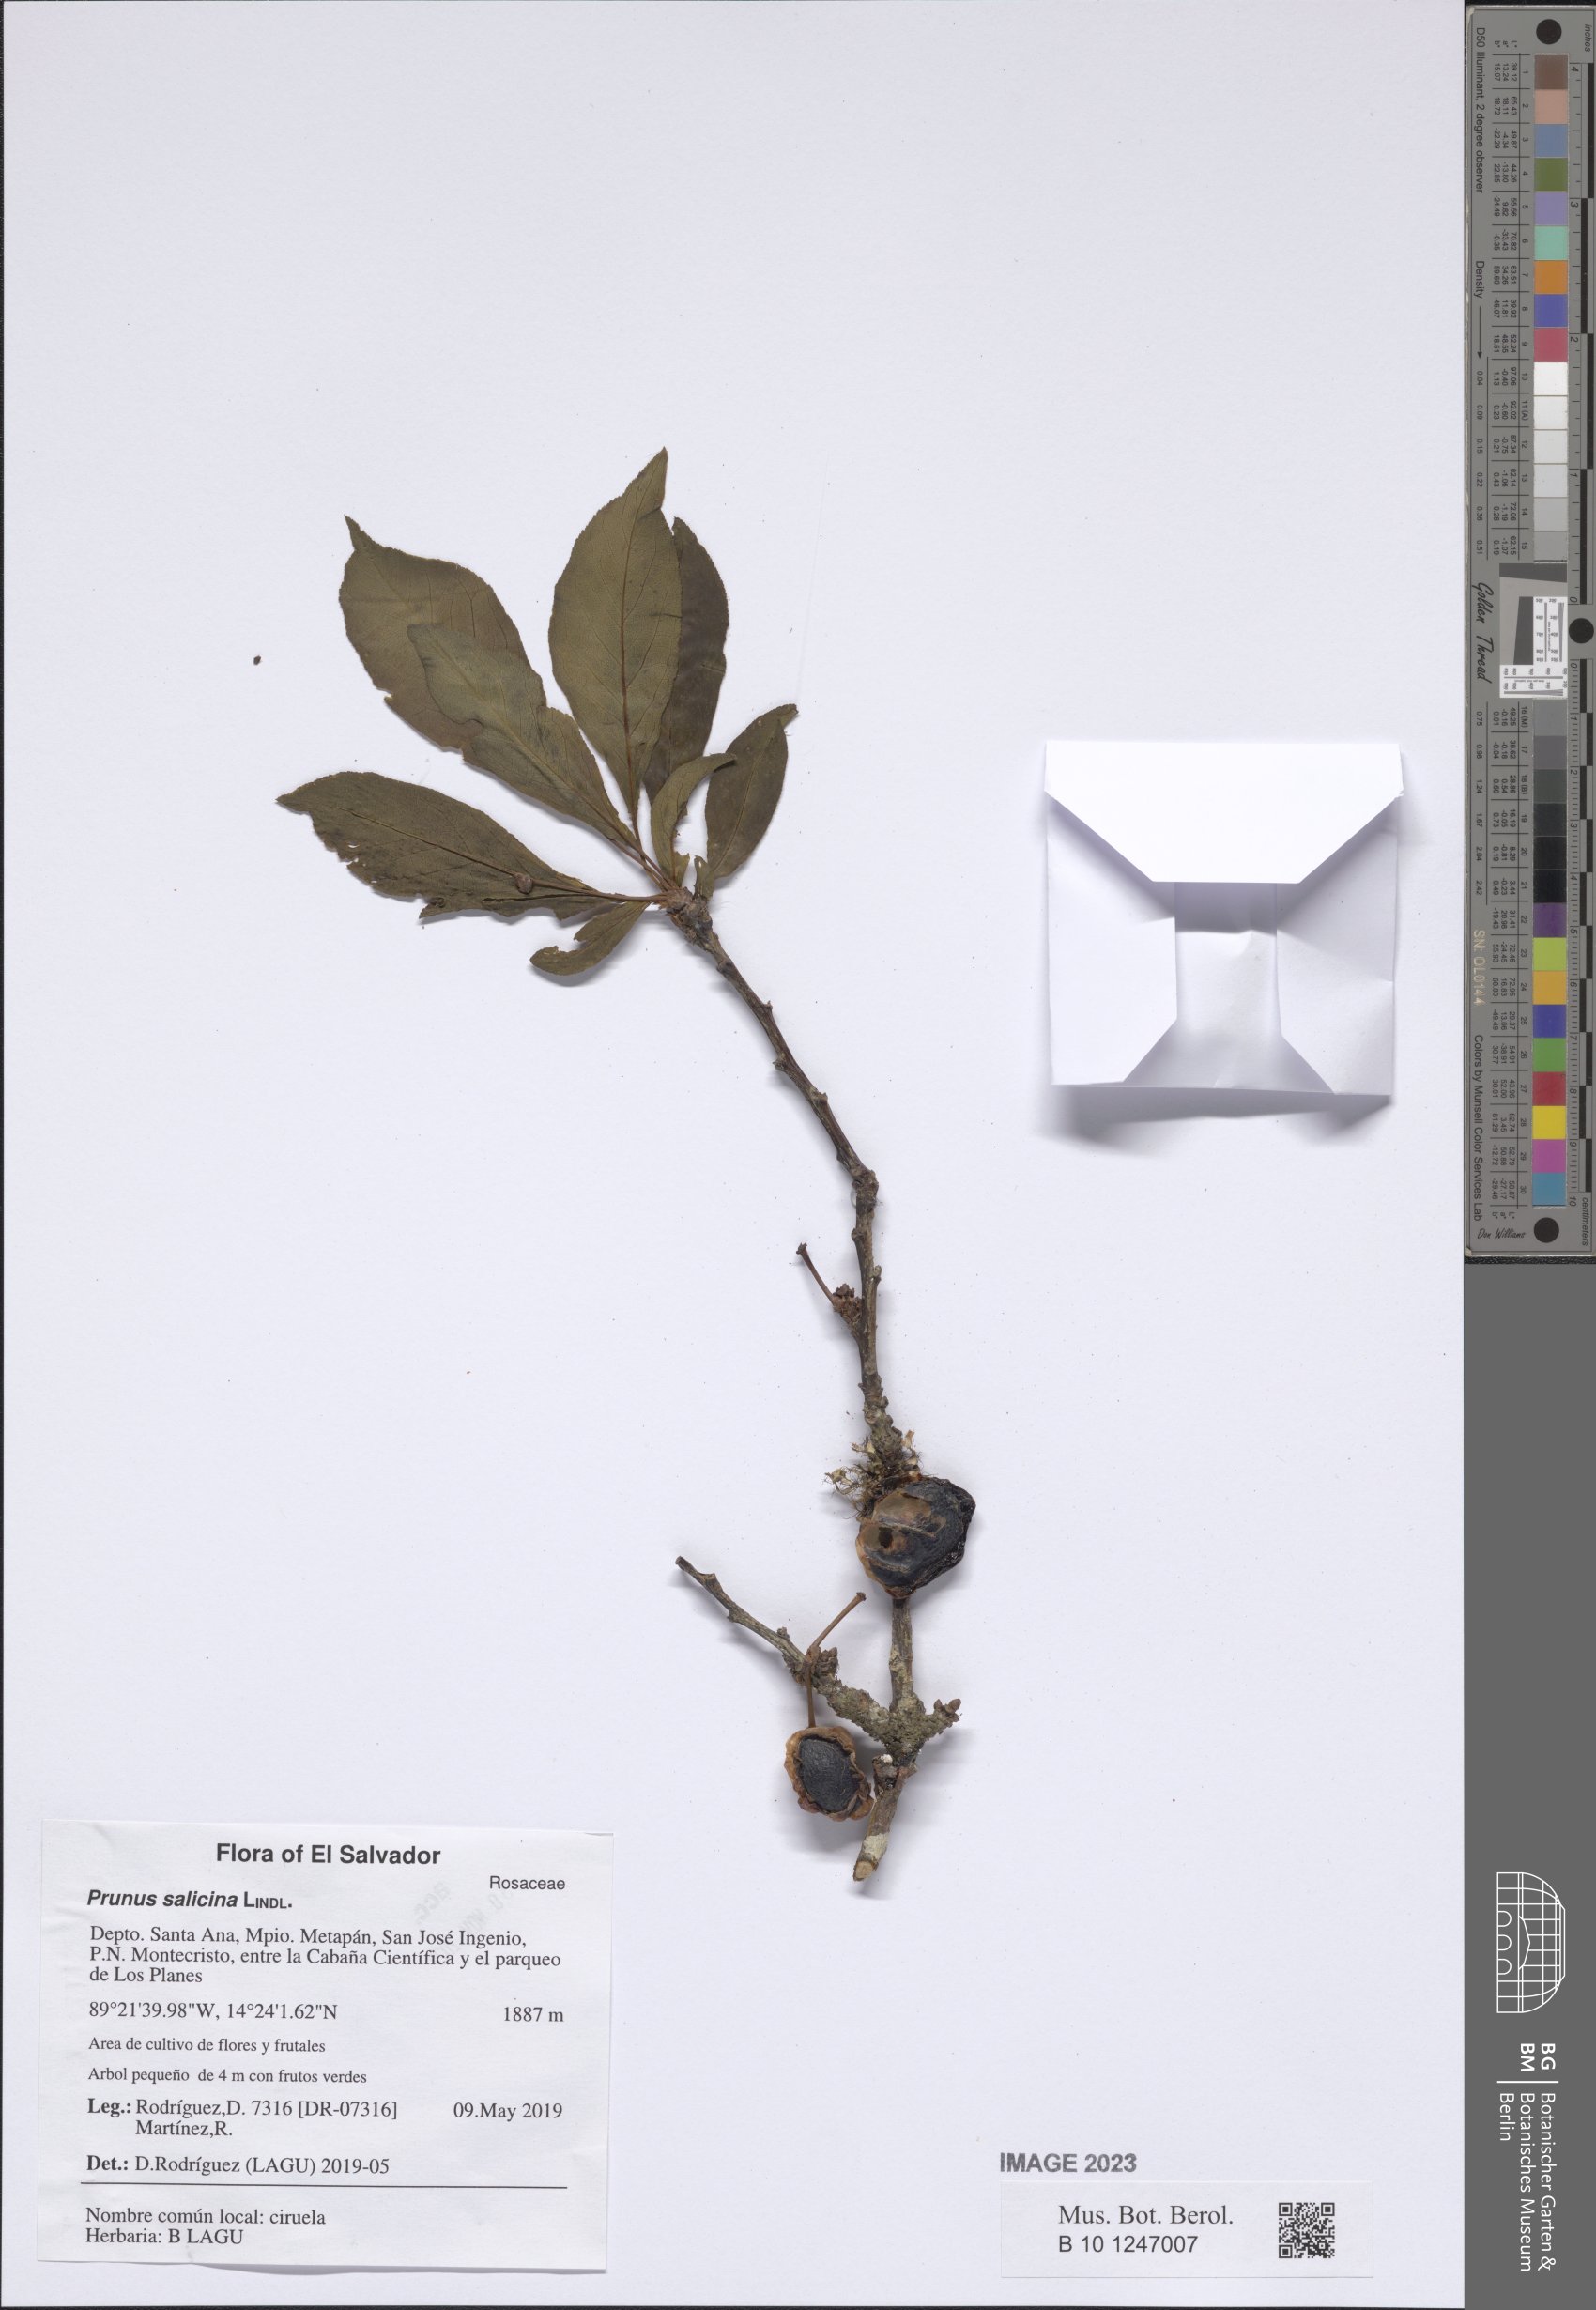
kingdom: Plantae
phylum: Tracheophyta
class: Magnoliopsida
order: Rosales
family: Rosaceae
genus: Prunus
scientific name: Prunus salicina
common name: Asian plum
